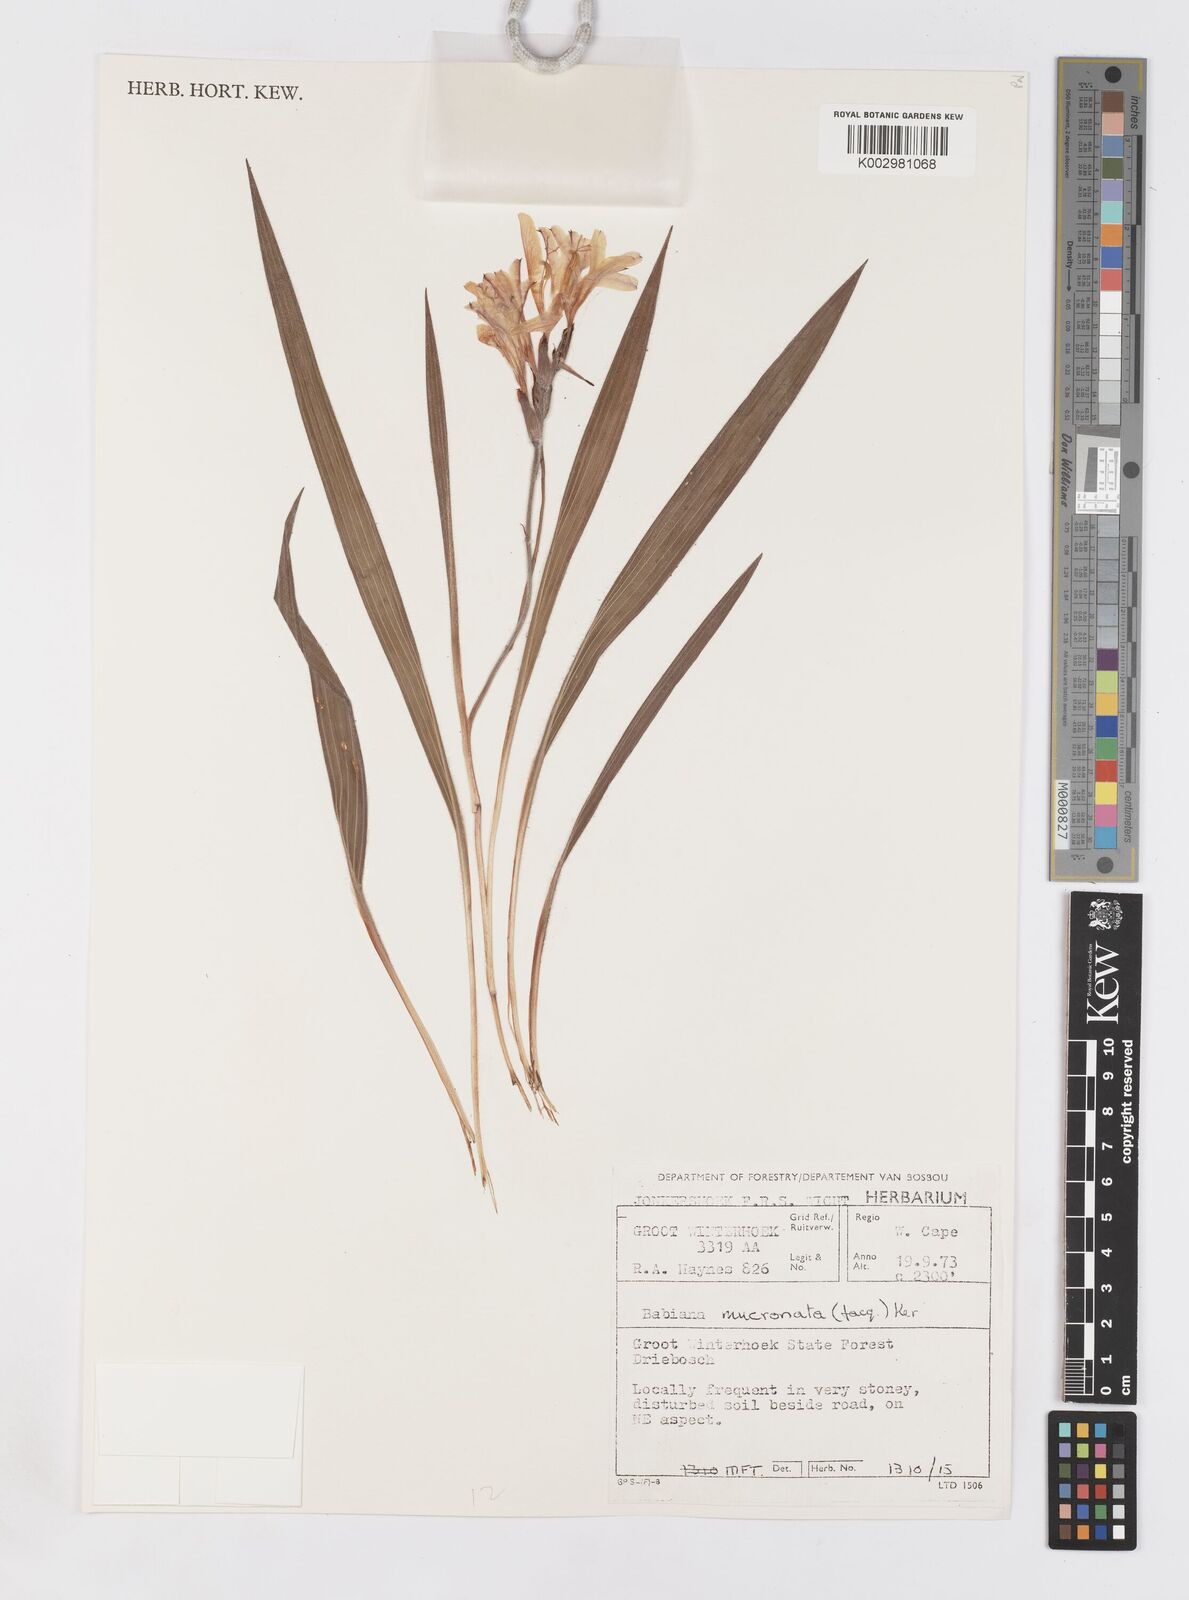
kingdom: Plantae
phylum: Tracheophyta
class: Liliopsida
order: Asparagales
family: Iridaceae
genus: Babiana
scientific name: Babiana mucronata
